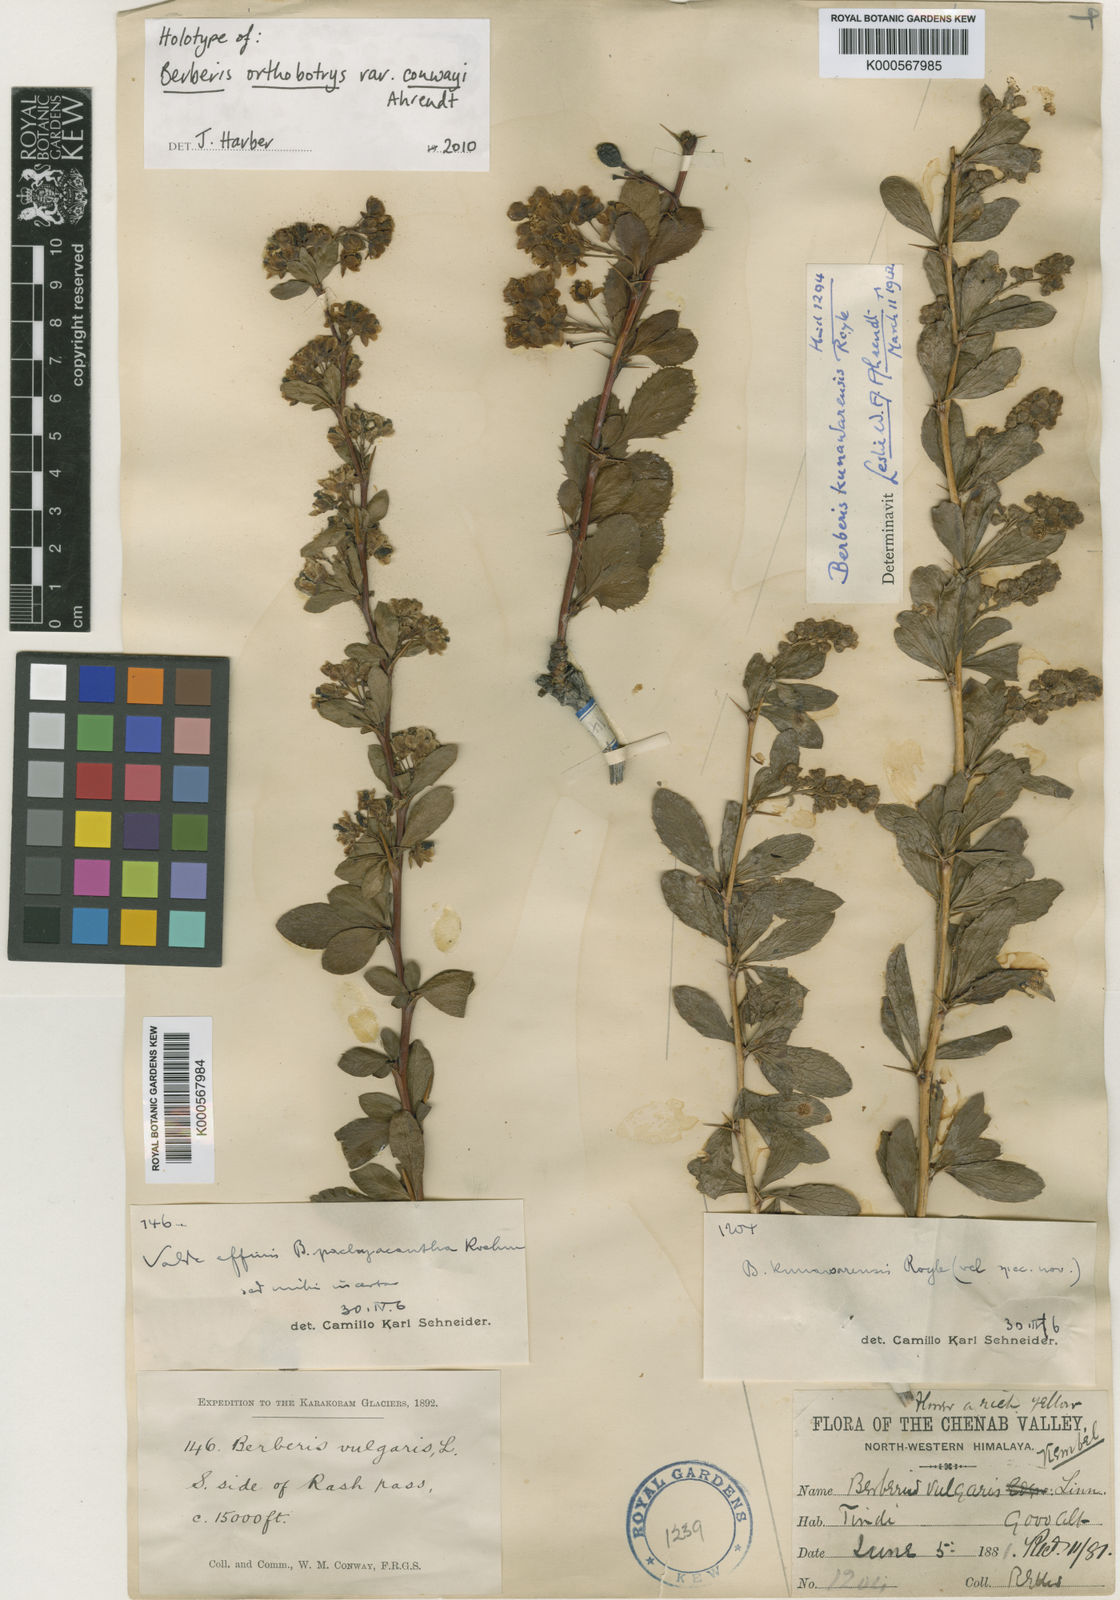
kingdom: Plantae
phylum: Tracheophyta
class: Magnoliopsida
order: Ranunculales
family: Berberidaceae
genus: Berberis
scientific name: Berberis orthobotrys
